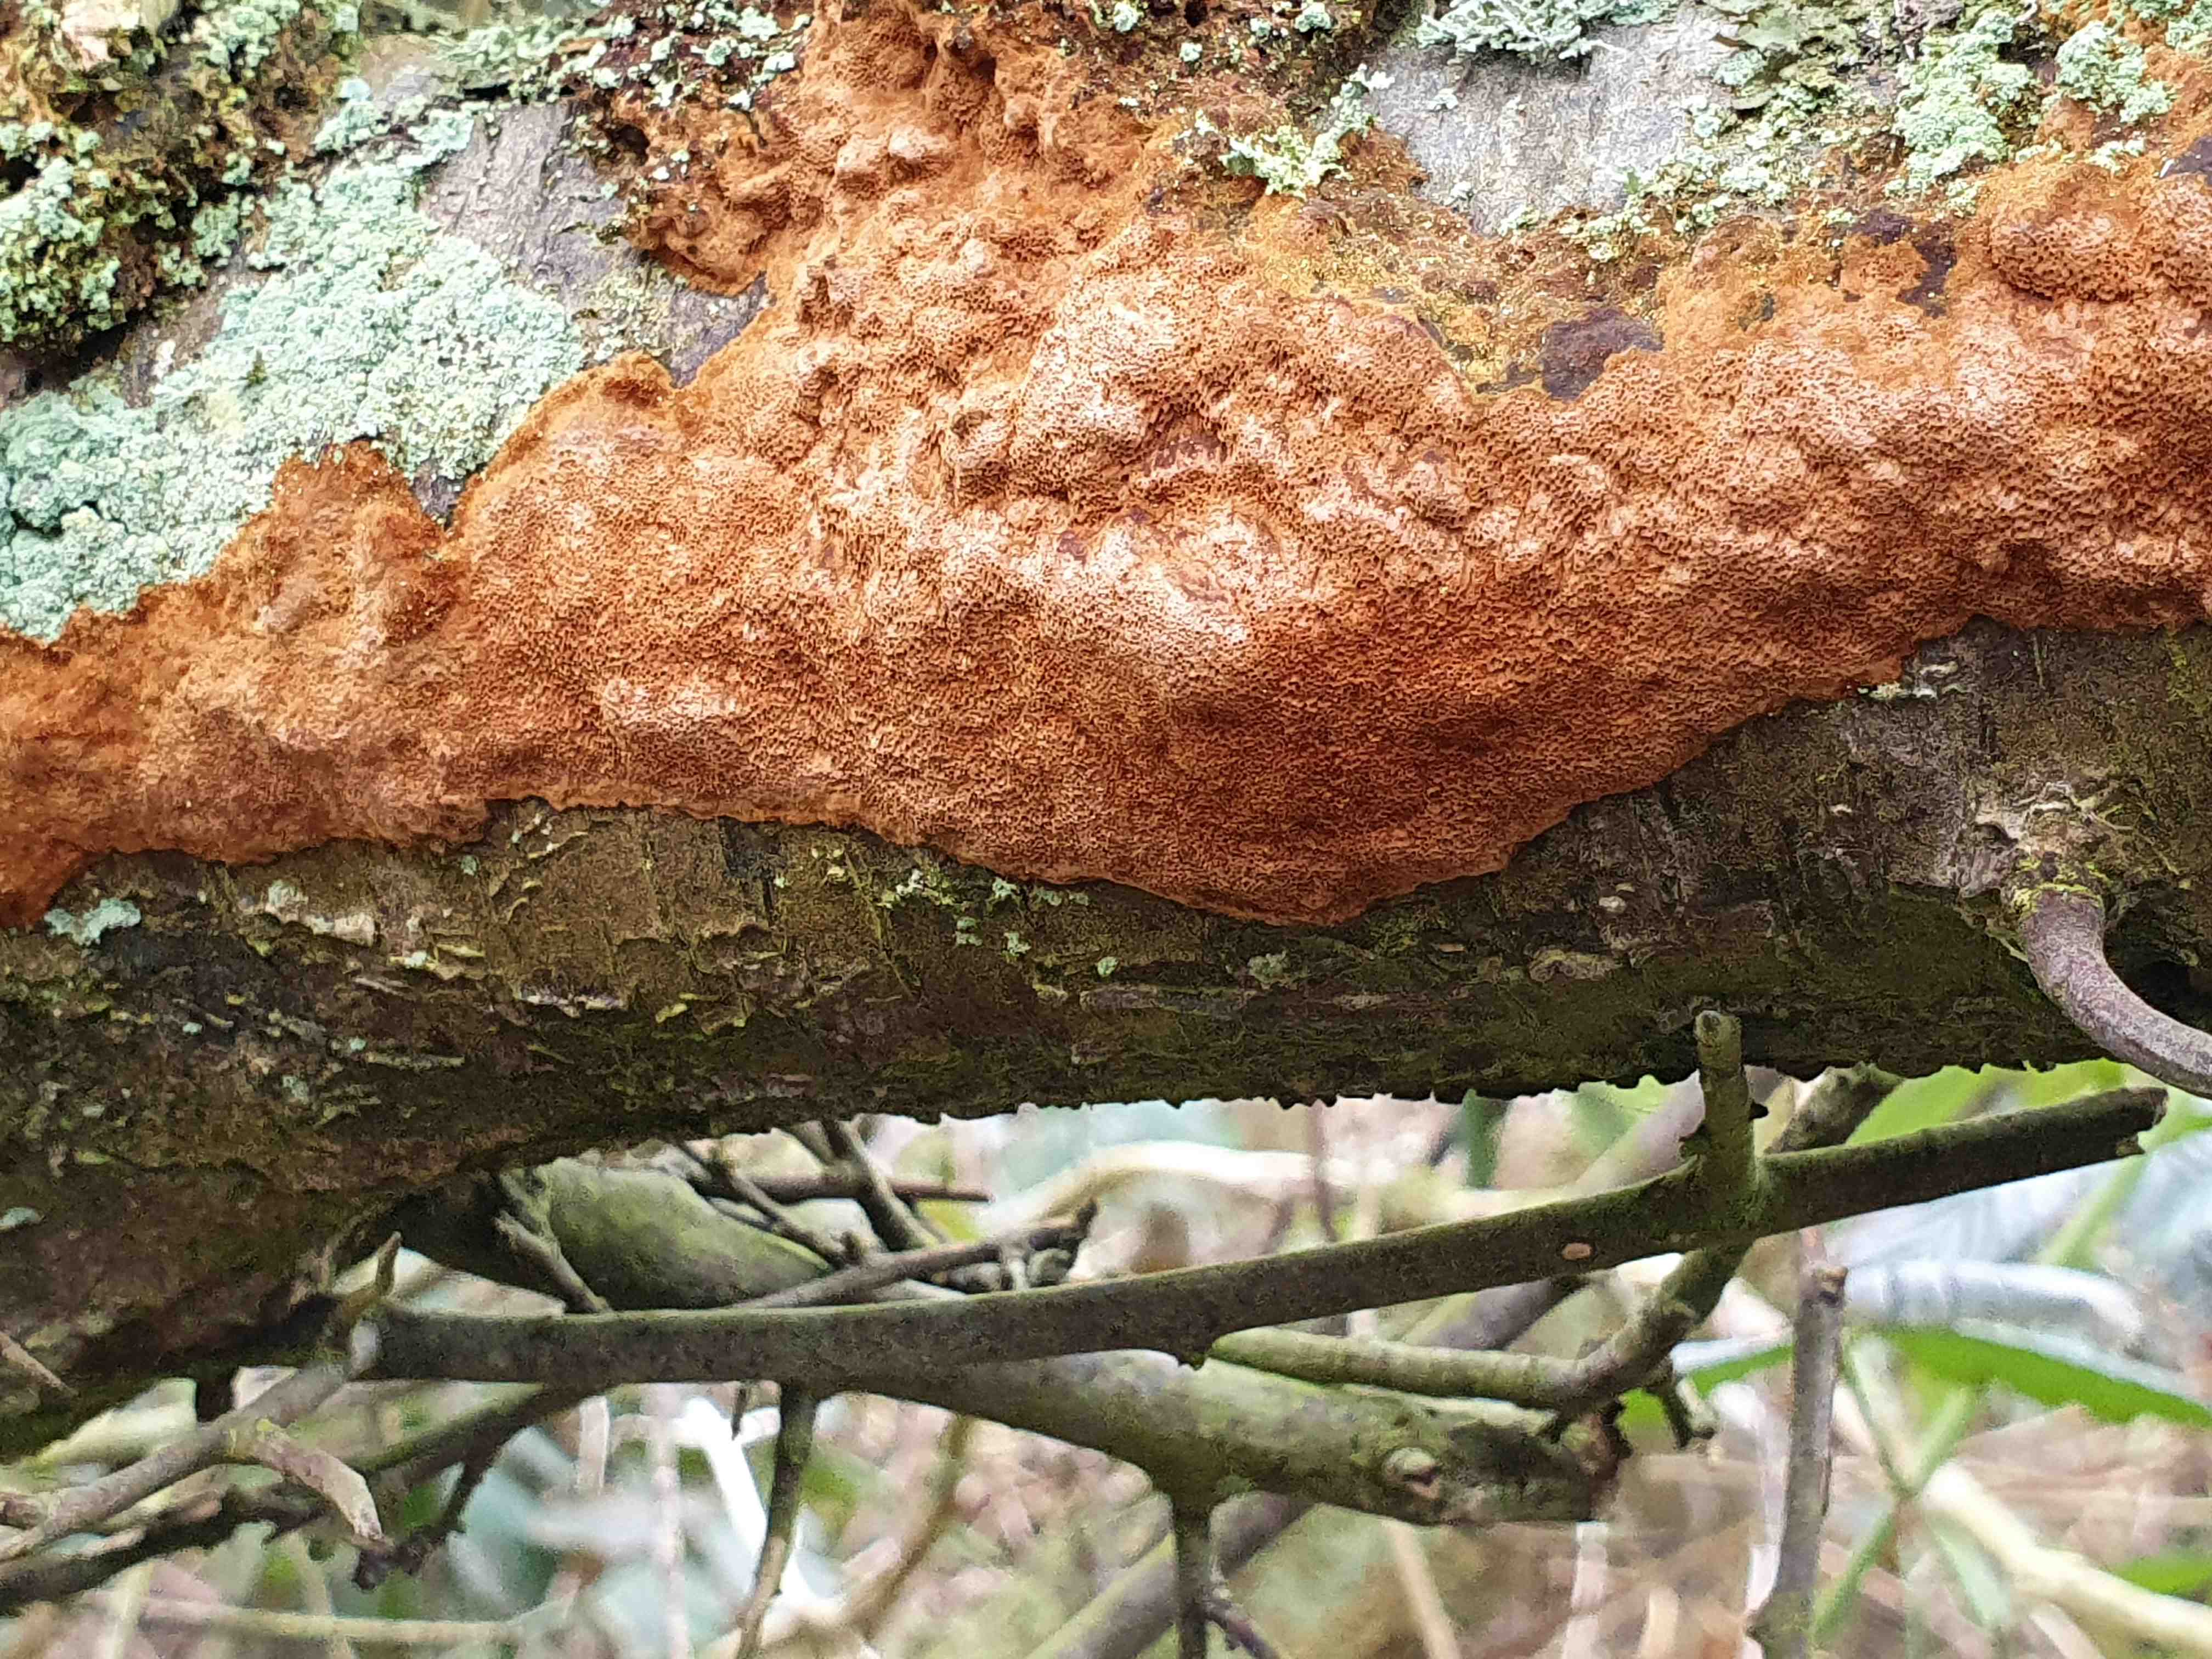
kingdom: Fungi
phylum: Basidiomycota
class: Agaricomycetes
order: Hymenochaetales
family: Hymenochaetaceae
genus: Fuscoporia
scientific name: Fuscoporia contigua
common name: grov ildporesvamp
